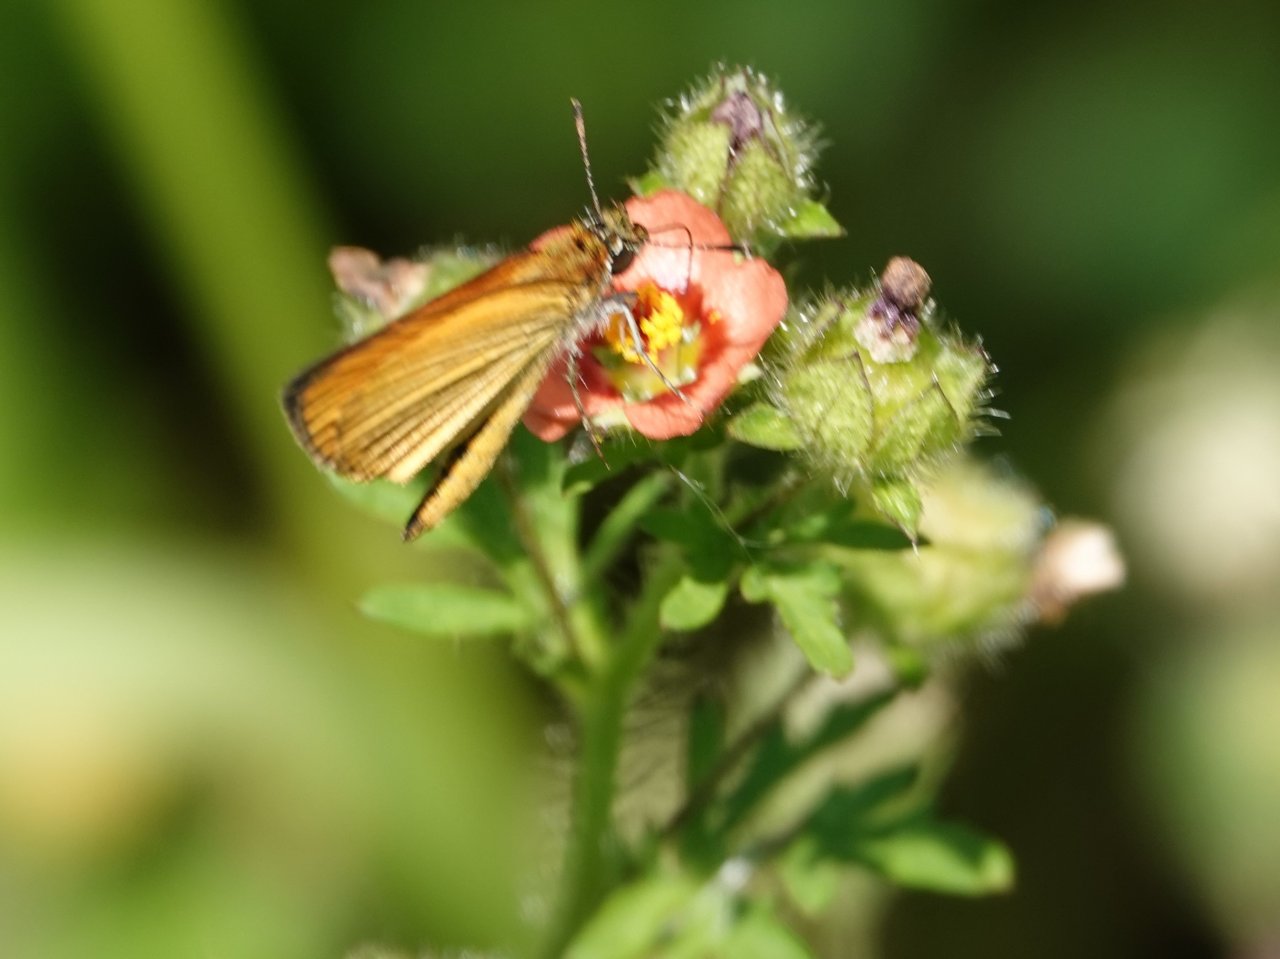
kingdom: Animalia
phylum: Arthropoda
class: Insecta
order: Lepidoptera
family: Hesperiidae
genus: Copaeodes
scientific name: Copaeodes minima
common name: Southern Skipperling
